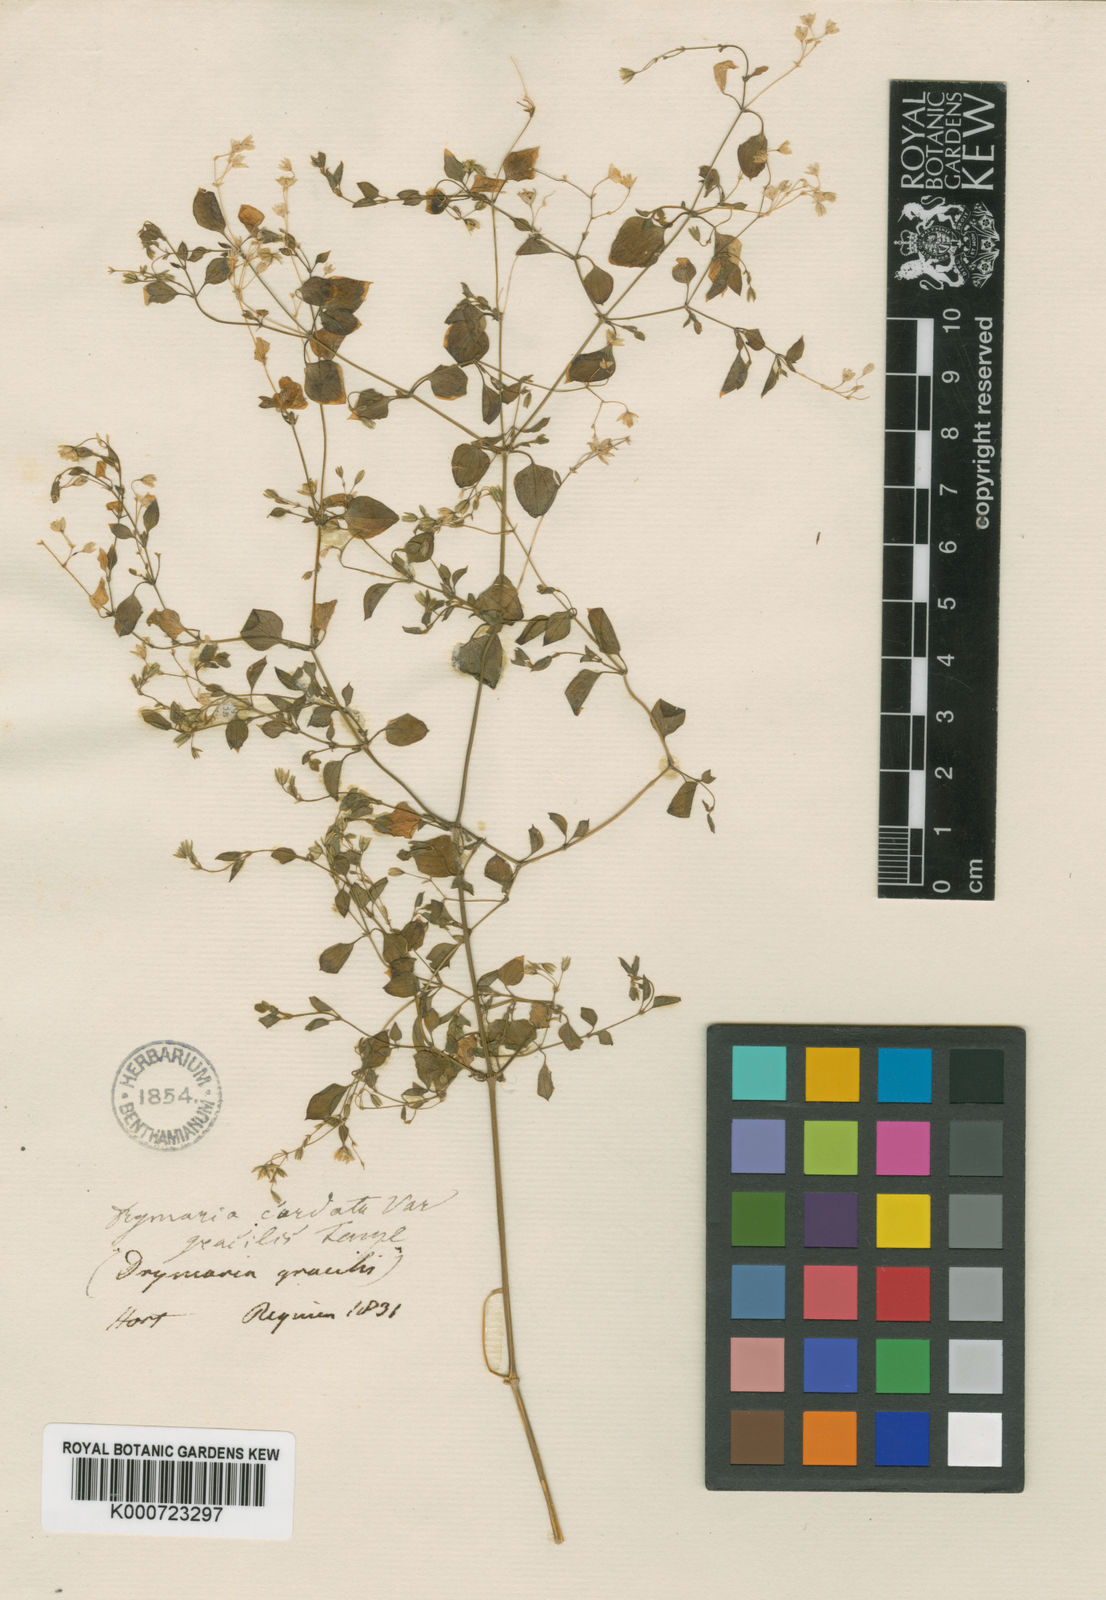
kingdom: Plantae
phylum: Tracheophyta
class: Magnoliopsida
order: Caryophyllales
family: Caryophyllaceae
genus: Drymaria
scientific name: Drymaria cordata
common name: Whitesnow
